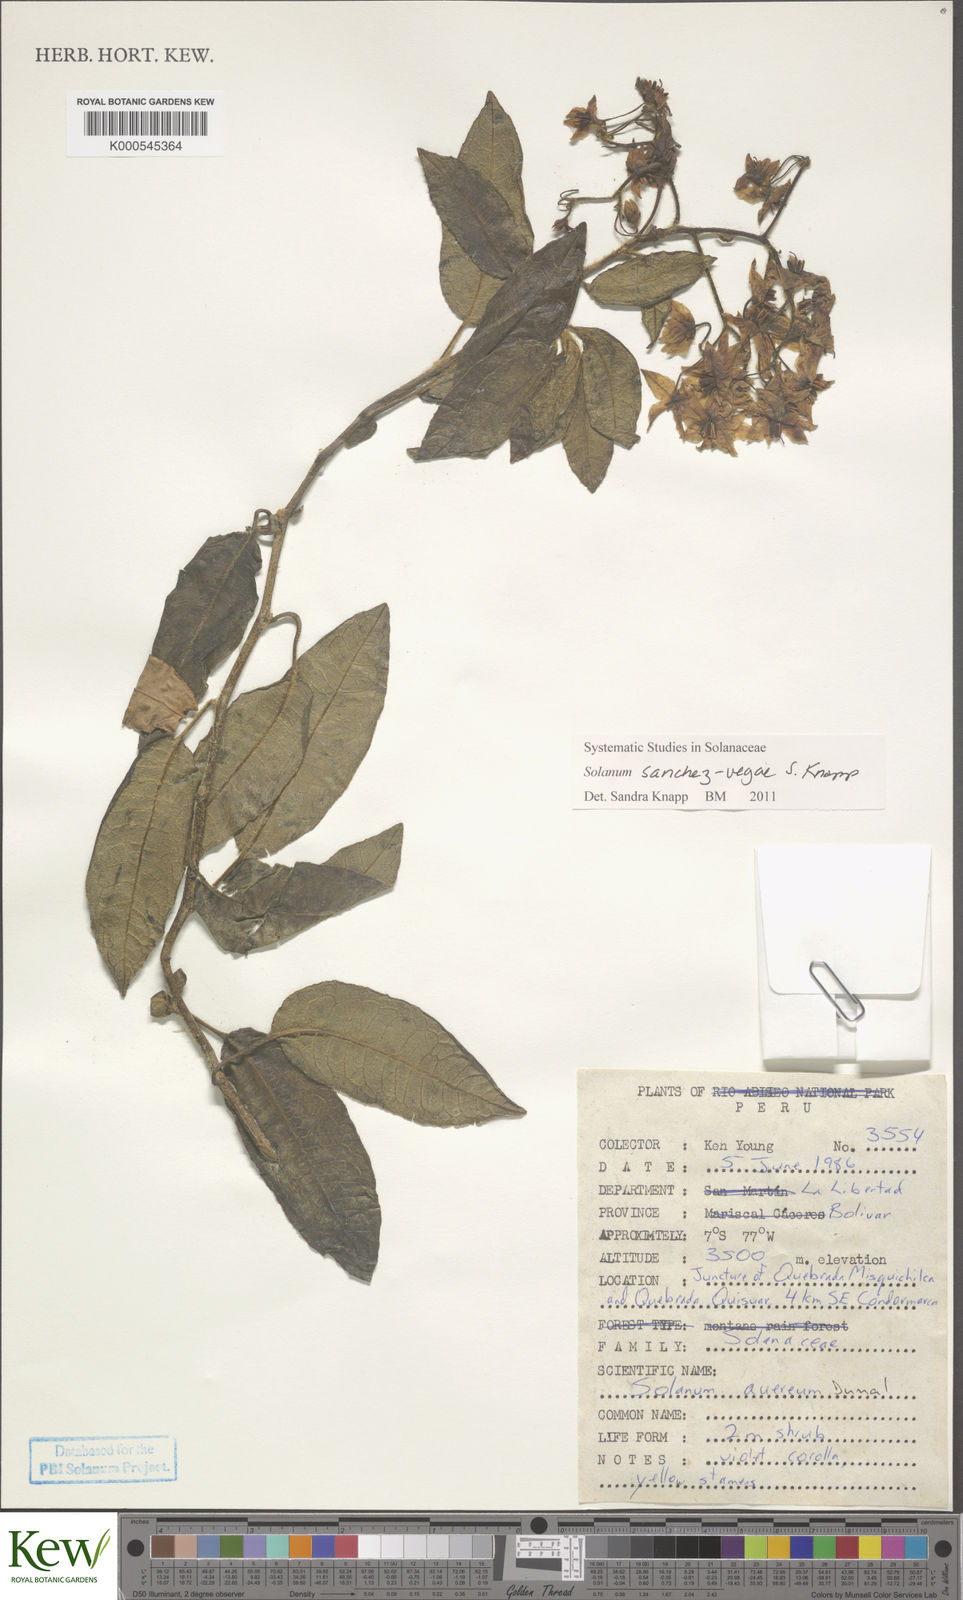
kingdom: Plantae
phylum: Tracheophyta
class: Magnoliopsida
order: Solanales
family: Solanaceae
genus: Solanum
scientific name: Solanum sanchez-vegae
